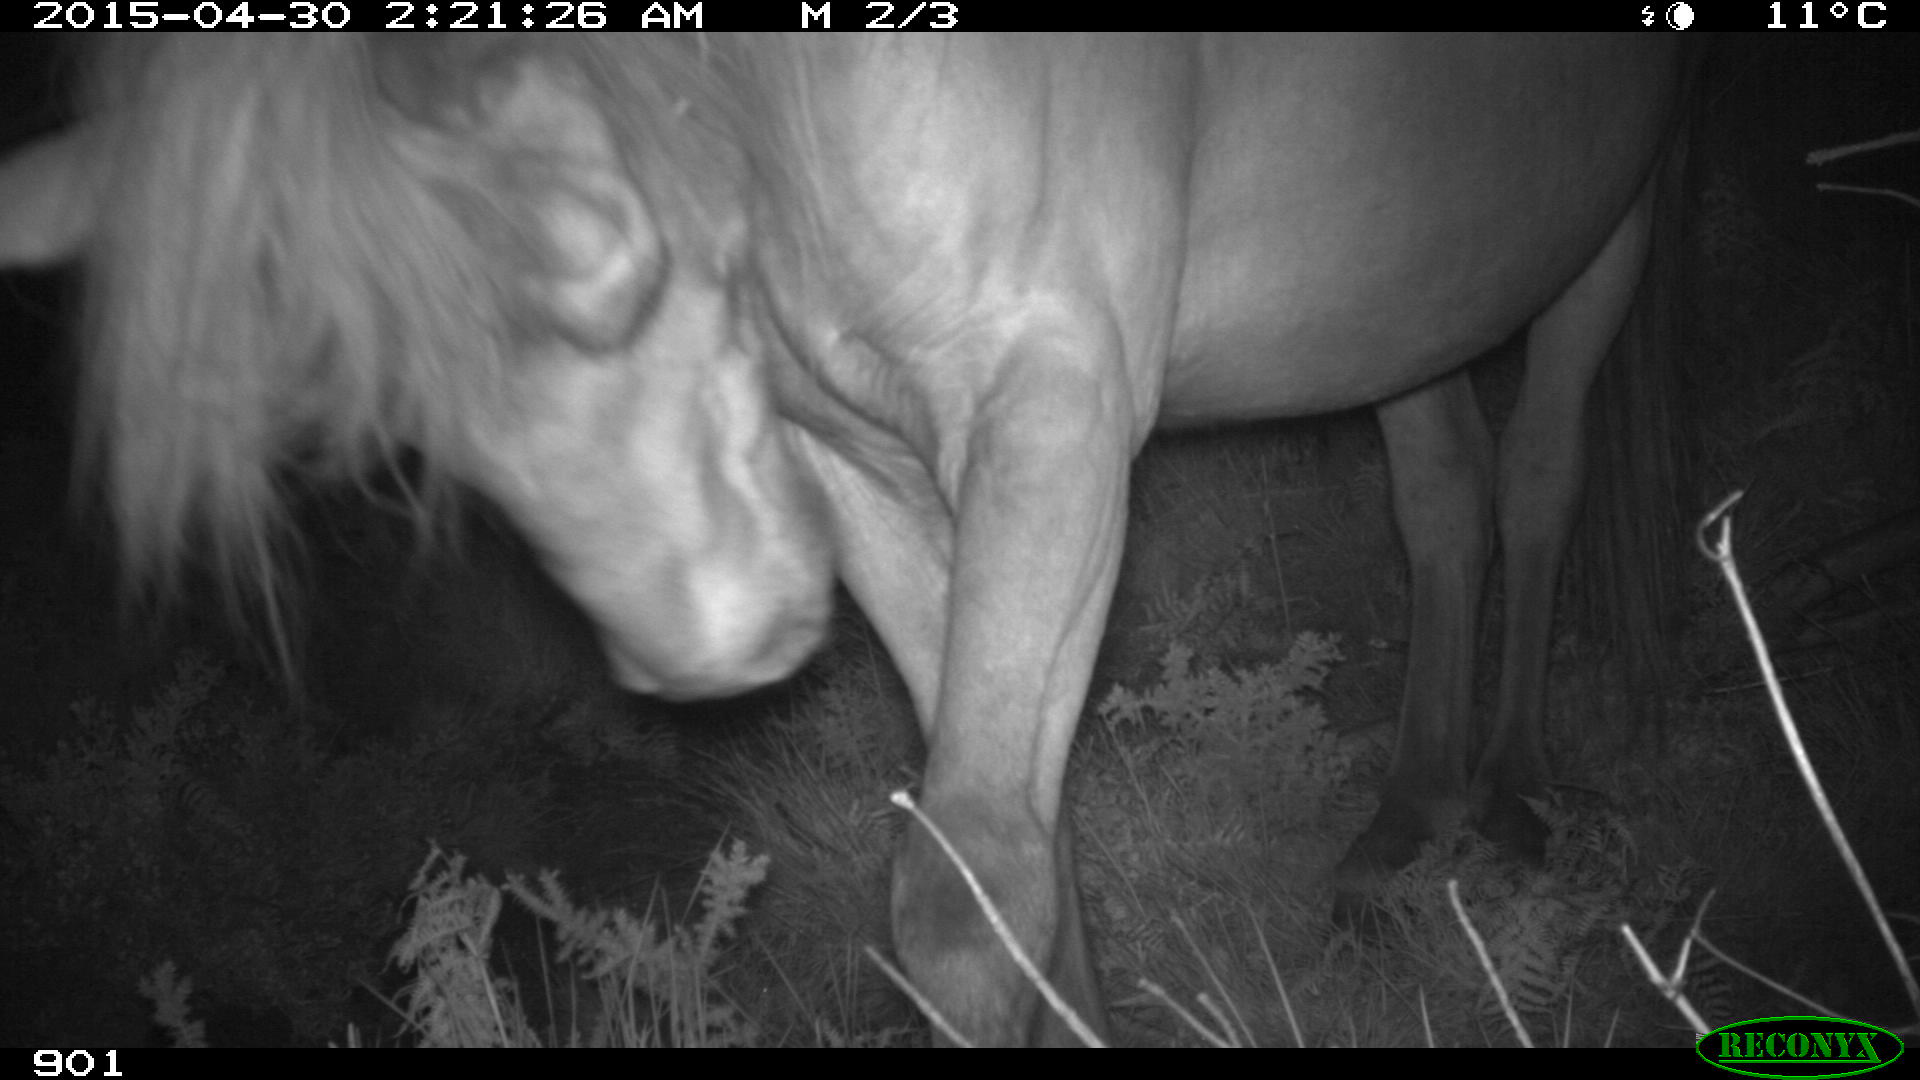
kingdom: Animalia
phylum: Chordata
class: Mammalia
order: Perissodactyla
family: Equidae
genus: Equus
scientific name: Equus caballus
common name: Horse
